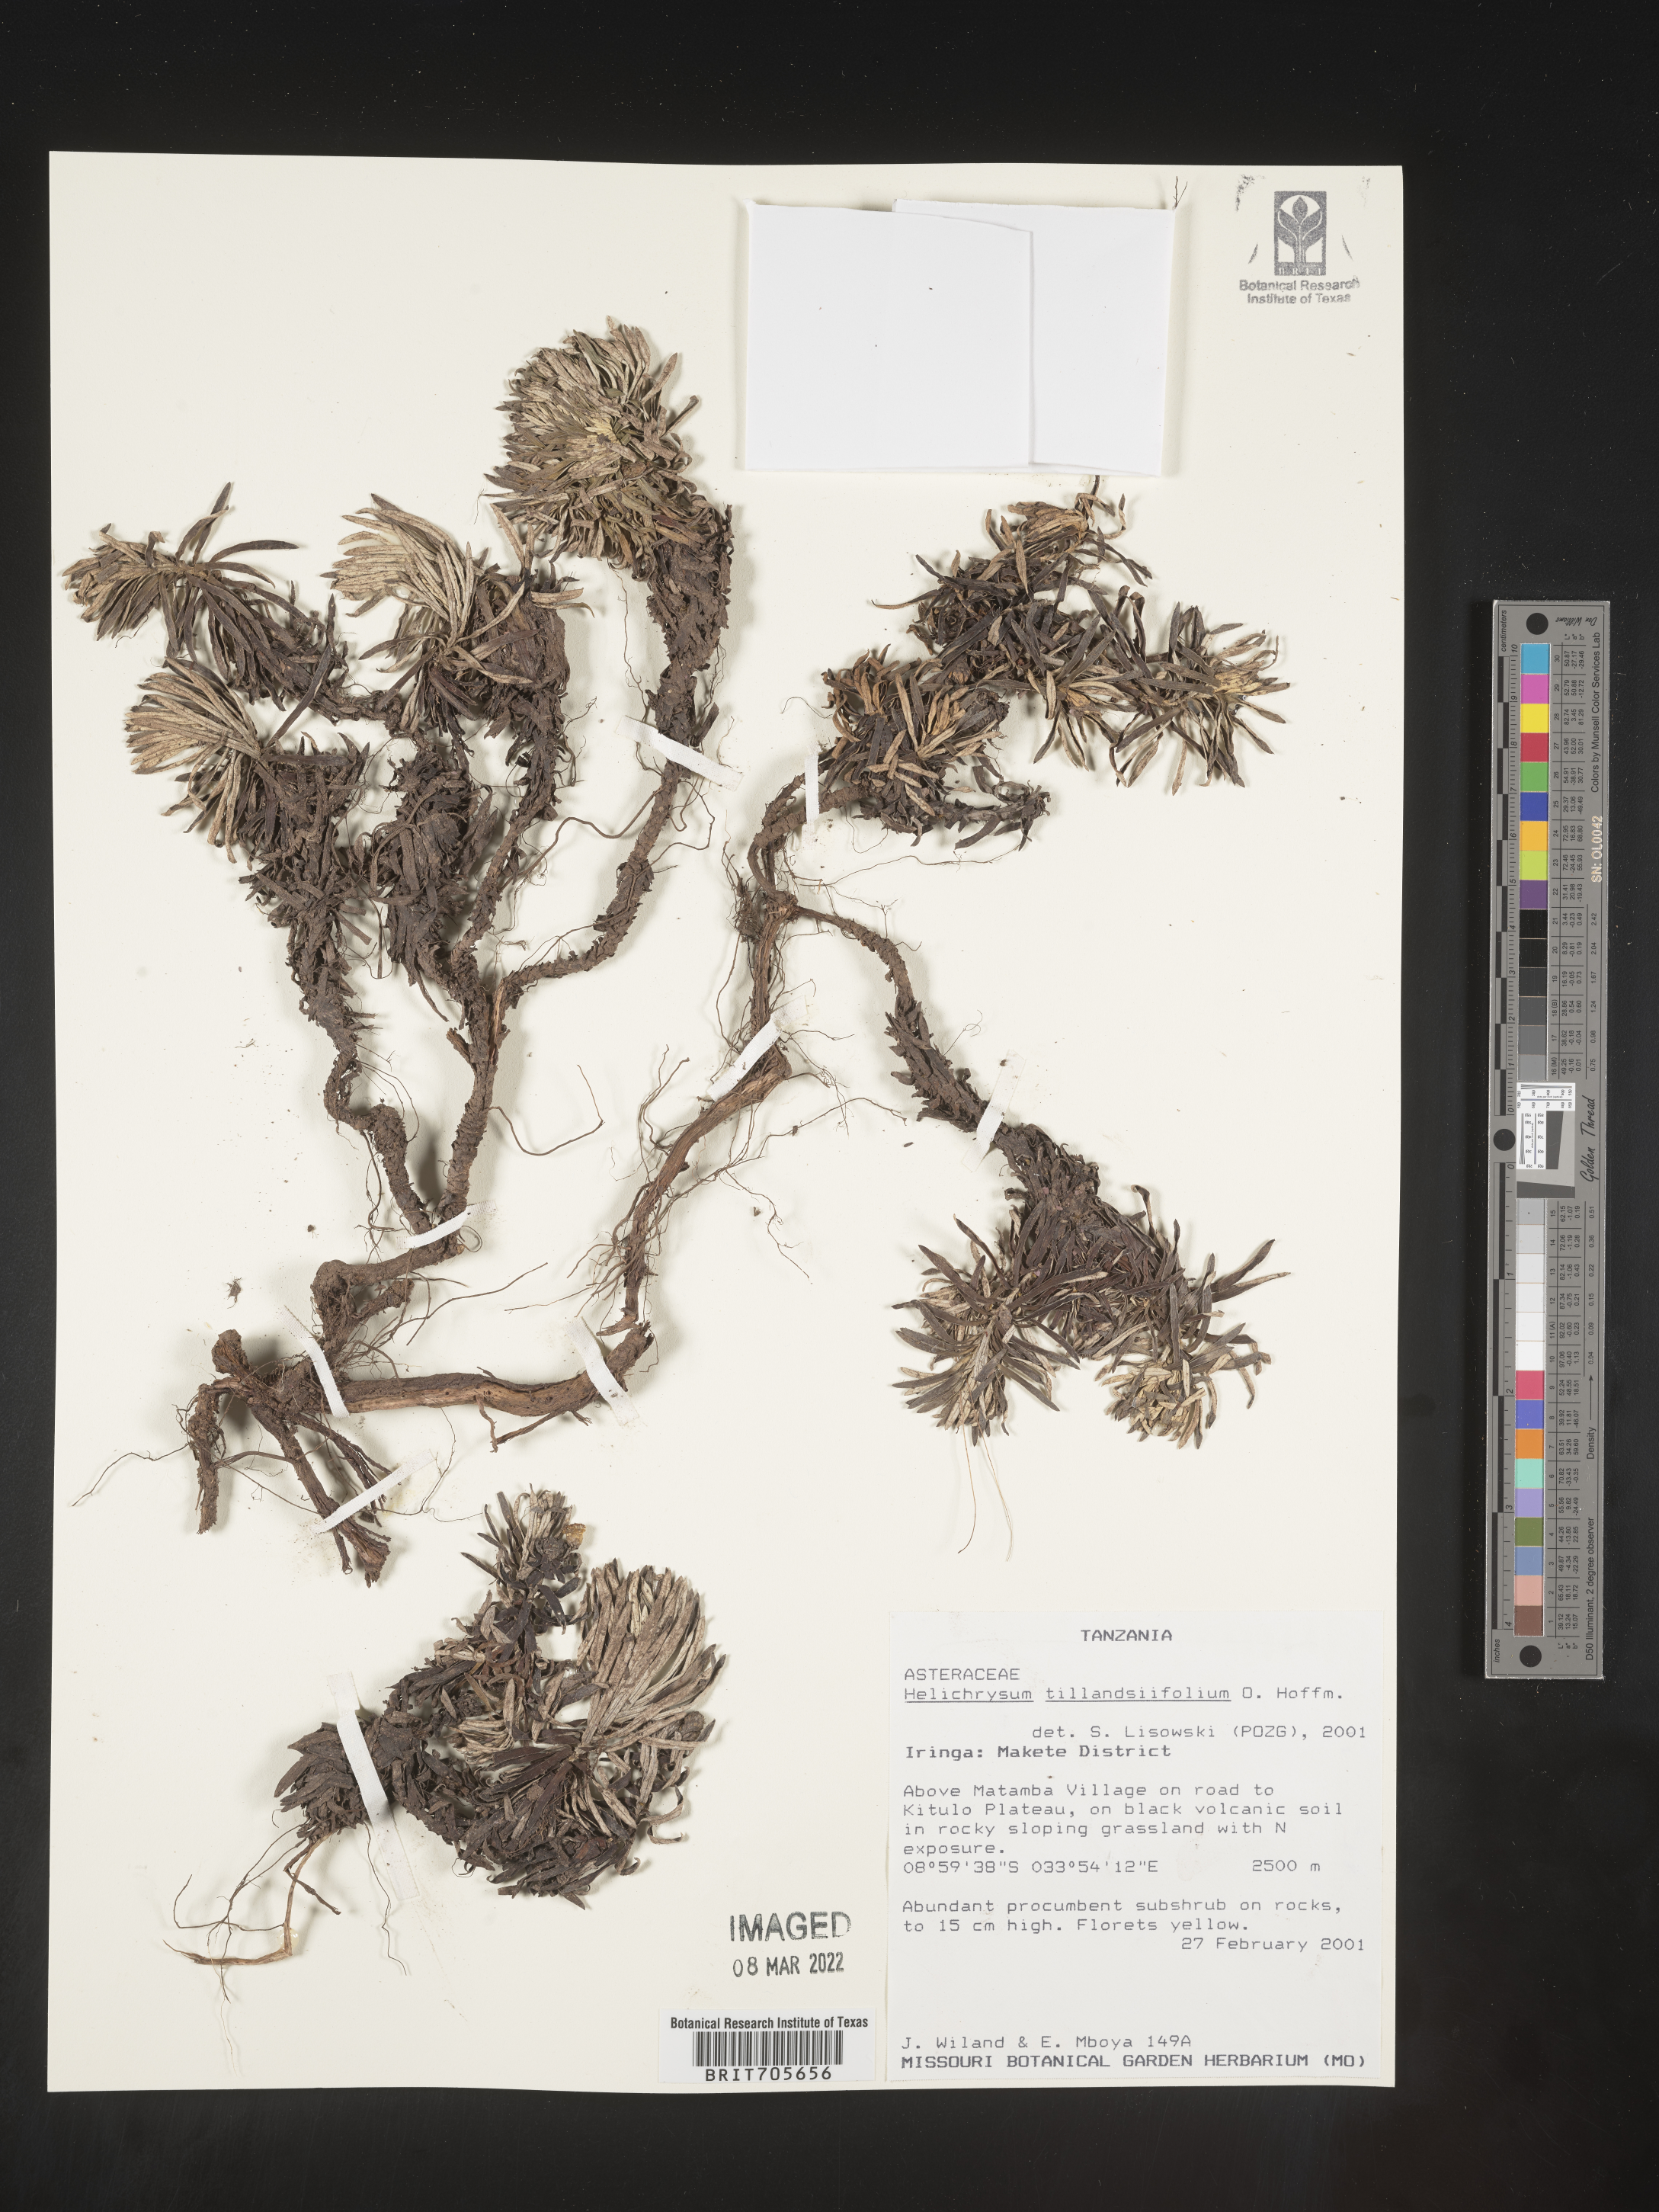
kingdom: Plantae
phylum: Tracheophyta
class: Magnoliopsida
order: Asterales
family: Asteraceae
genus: Helichrysum
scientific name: Helichrysum
